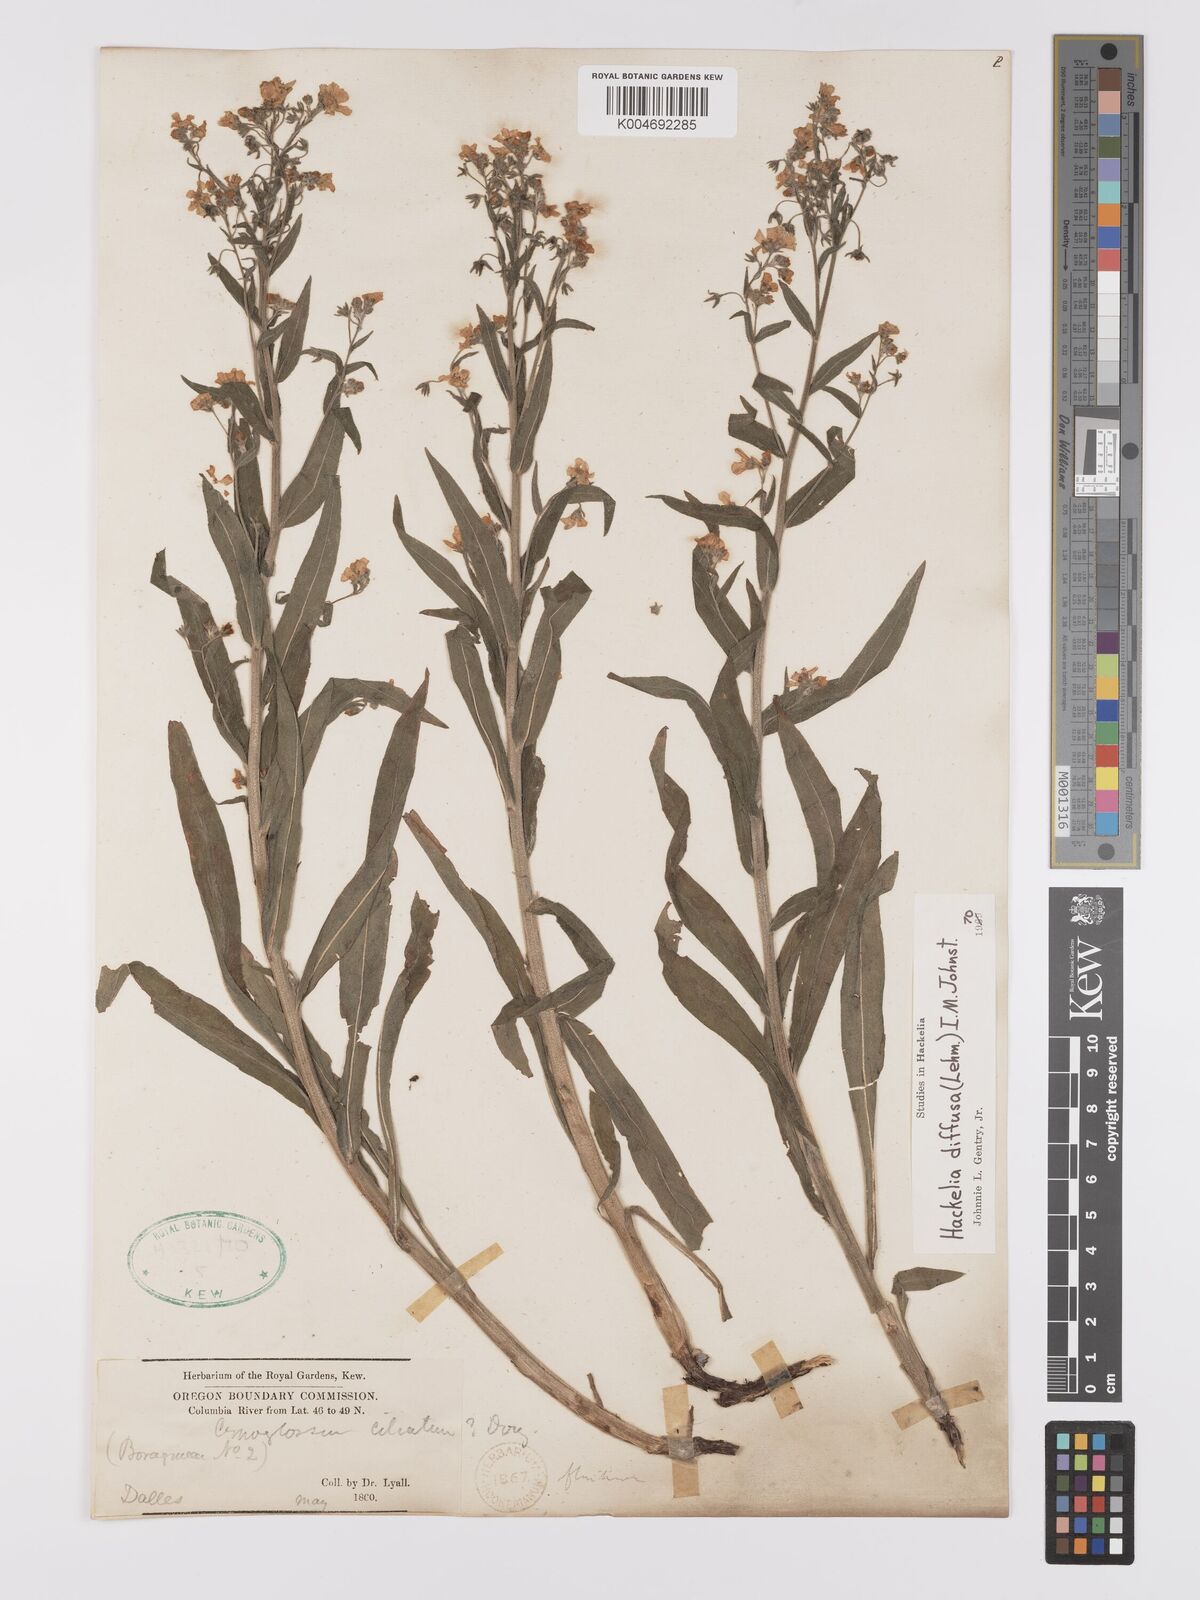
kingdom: Plantae
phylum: Tracheophyta
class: Magnoliopsida
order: Boraginales
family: Boraginaceae
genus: Hackelia
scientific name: Hackelia diffusa
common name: Spreading hackelia
